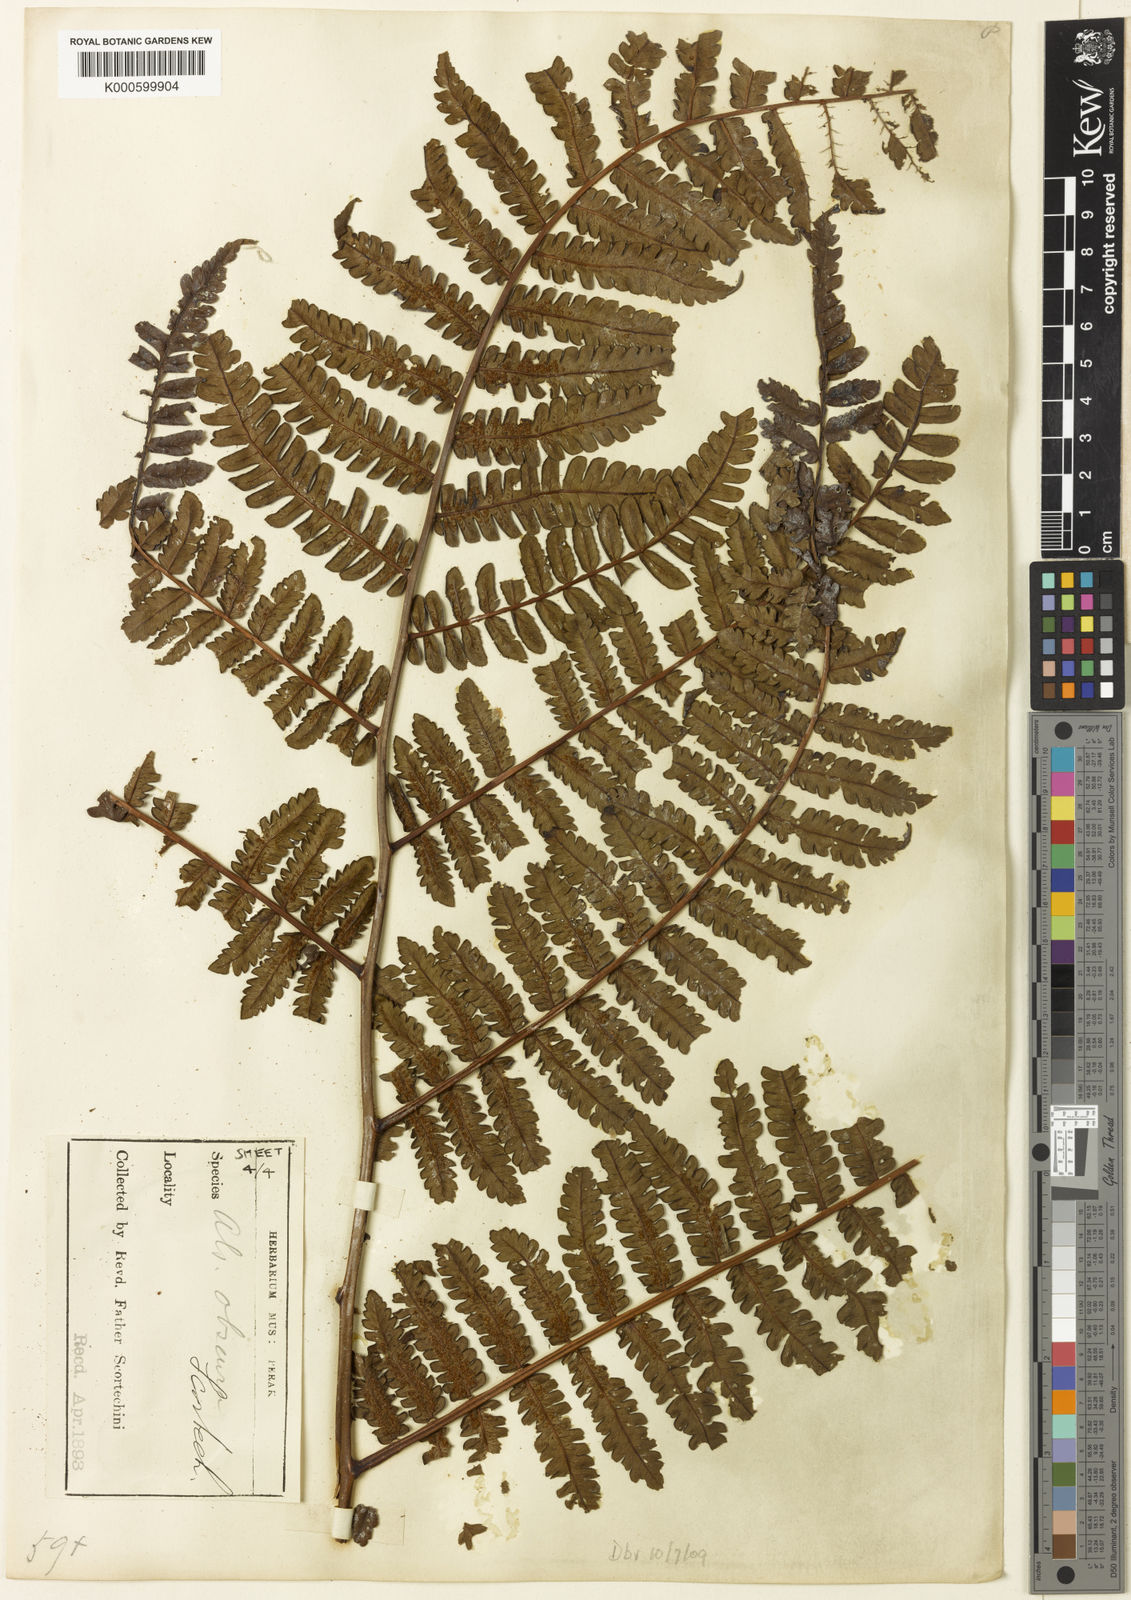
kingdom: Plantae
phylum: Tracheophyta
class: Polypodiopsida
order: Cyatheales
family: Cyatheaceae
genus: Sphaeropteris
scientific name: Sphaeropteris obscura
